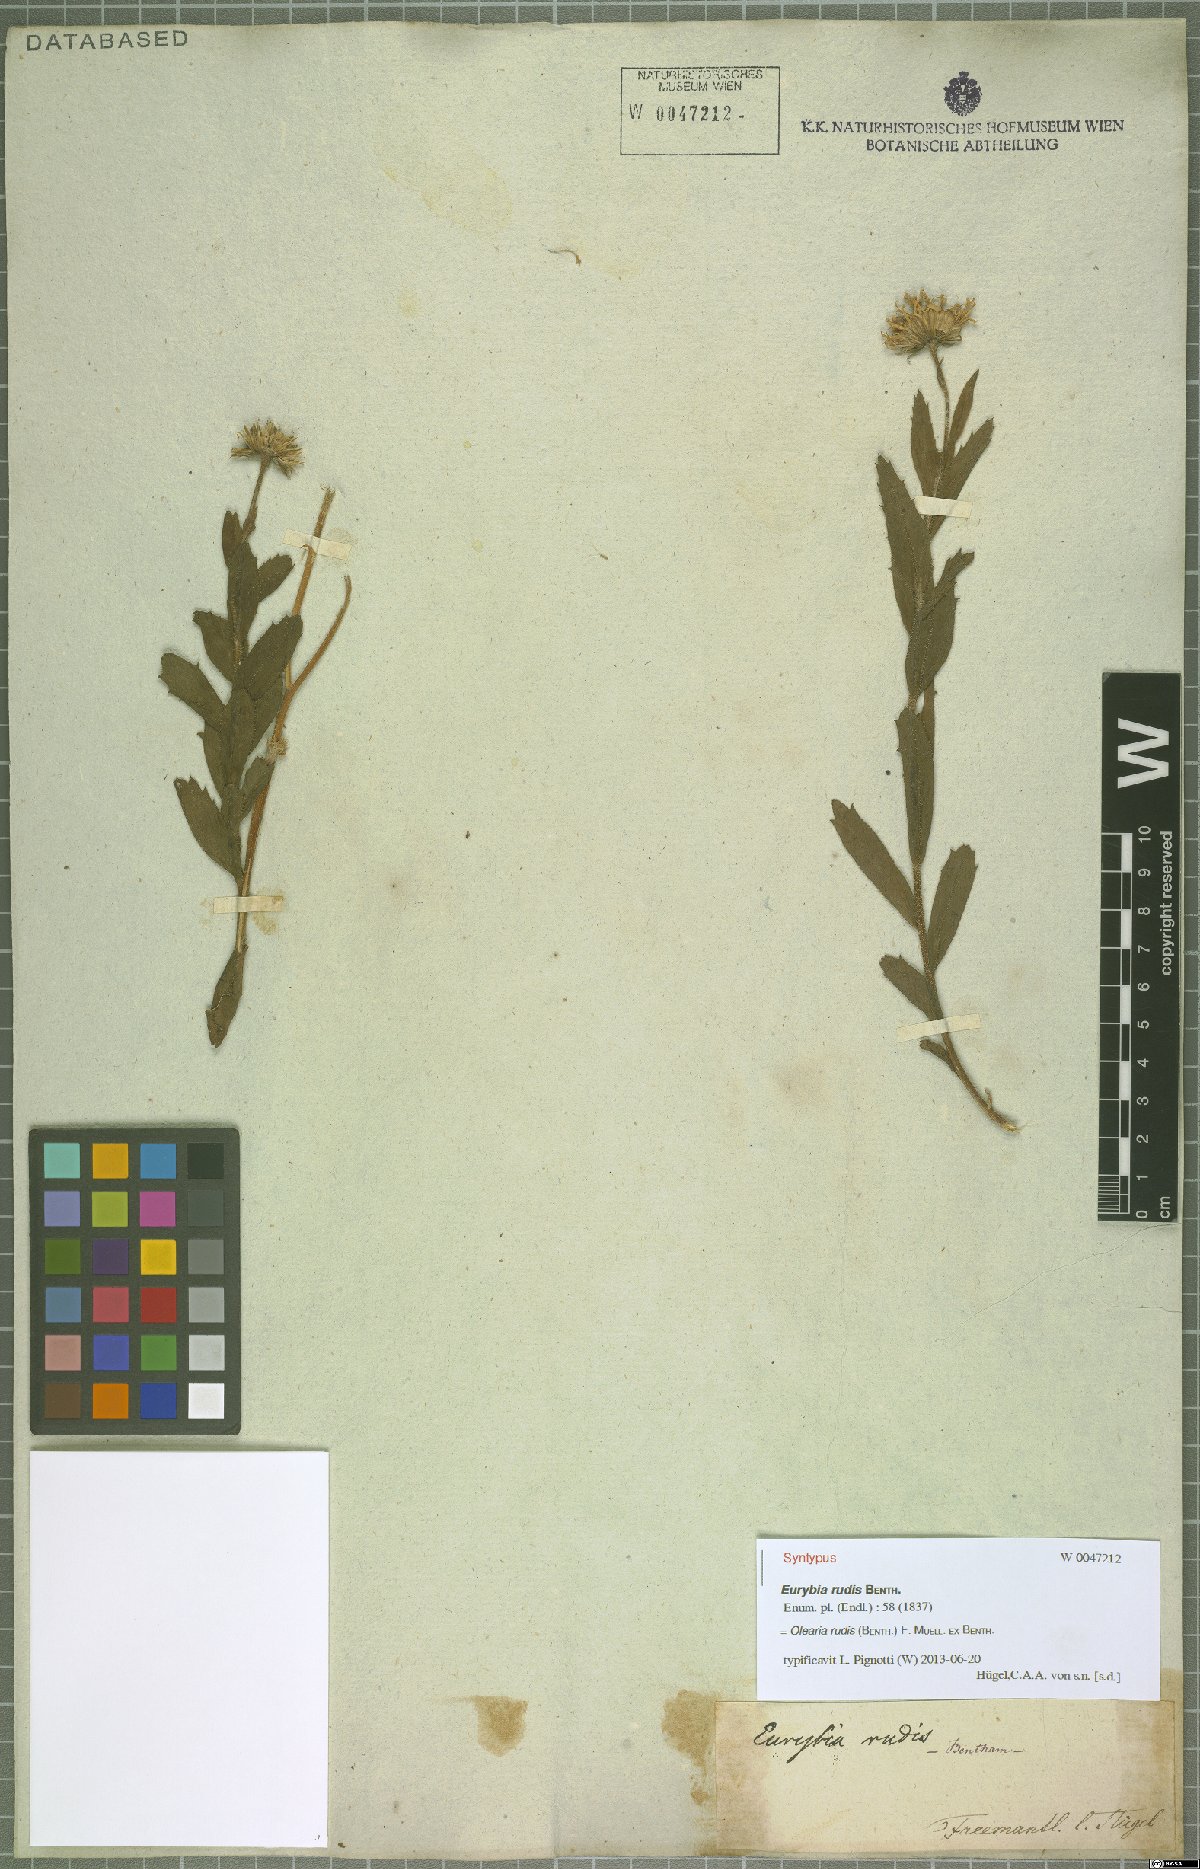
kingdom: Plantae
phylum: Tracheophyta
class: Magnoliopsida
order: Asterales
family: Asteraceae
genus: Muellerolaria
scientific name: Muellerolaria rudis
